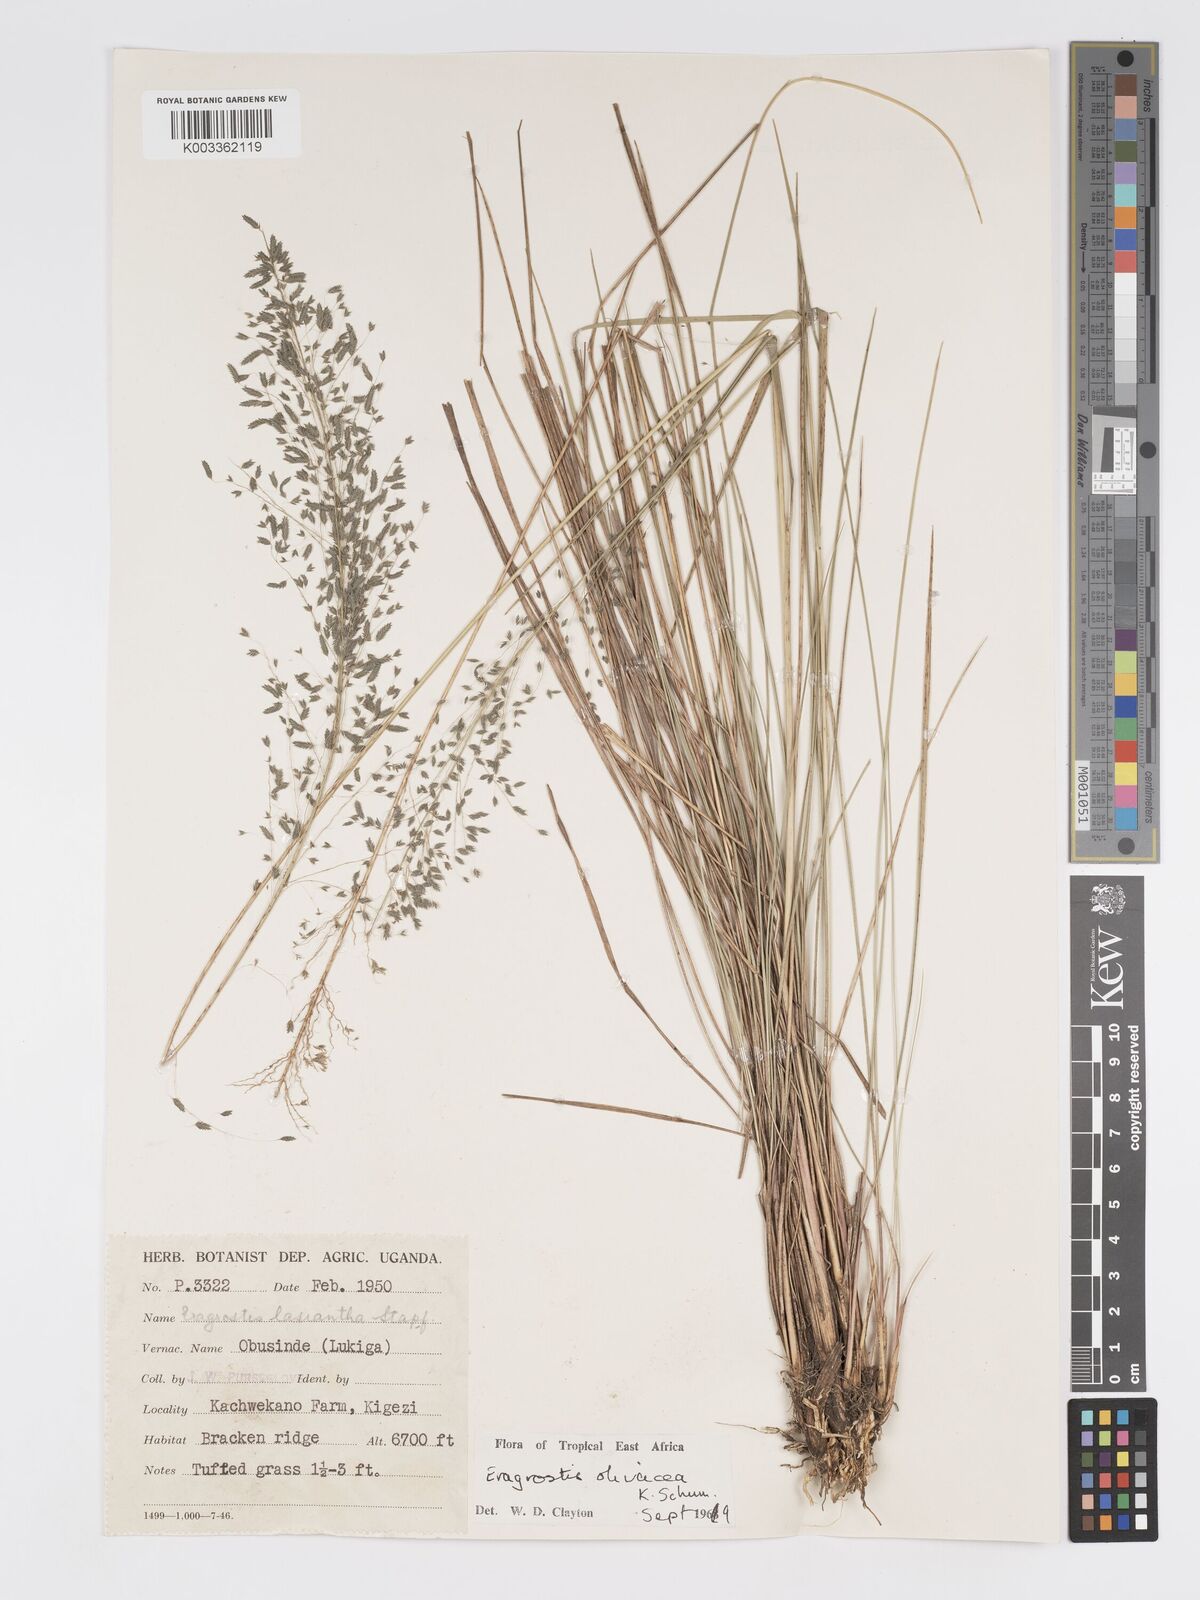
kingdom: Plantae
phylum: Tracheophyta
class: Liliopsida
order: Poales
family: Poaceae
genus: Eragrostis
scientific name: Eragrostis olivacea
